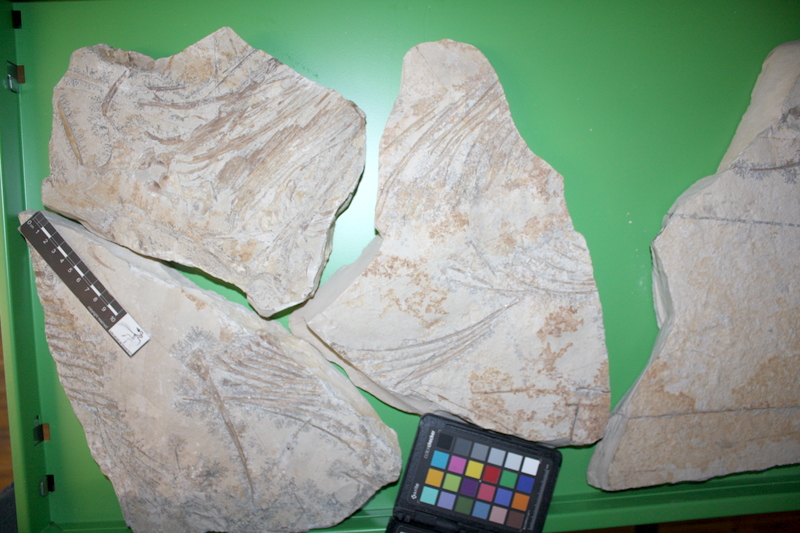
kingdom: Animalia
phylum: Chordata
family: Pachycormidae
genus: Asthenocormus
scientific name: Asthenocormus titanius
